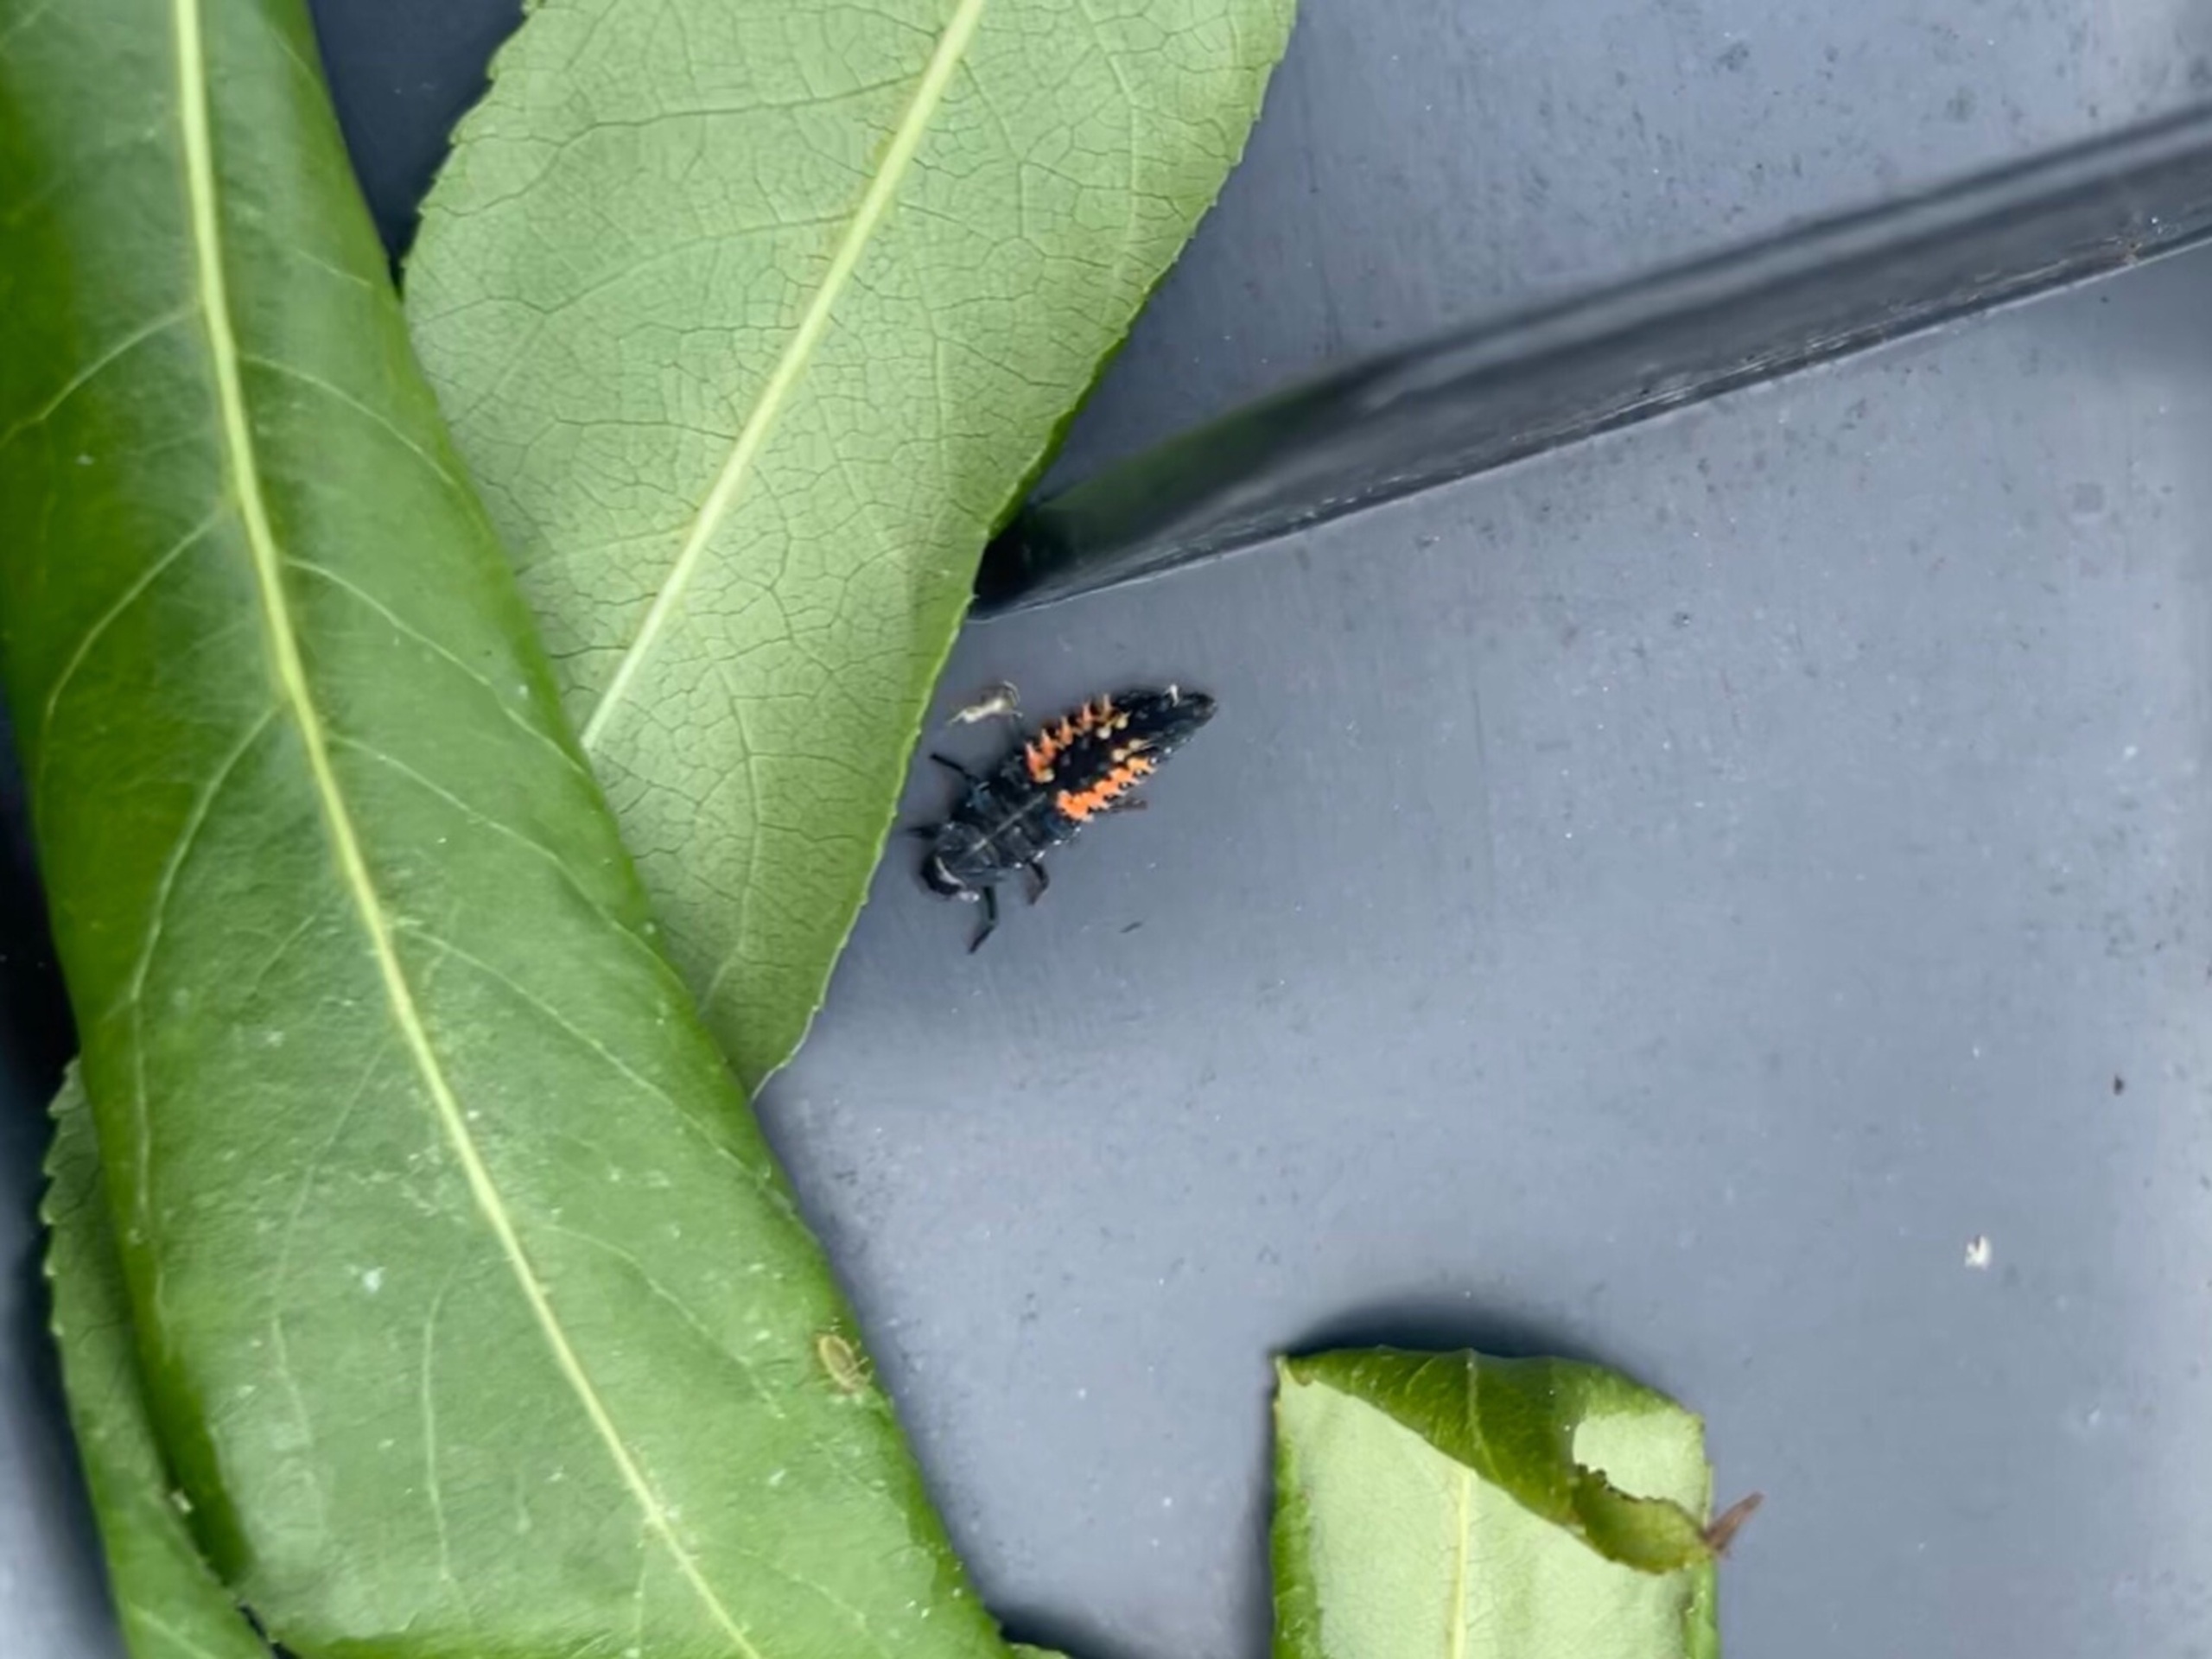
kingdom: Animalia
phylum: Arthropoda
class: Insecta
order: Coleoptera
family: Coccinellidae
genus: Harmonia
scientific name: Harmonia axyridis
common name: Harlekinmariehøne
